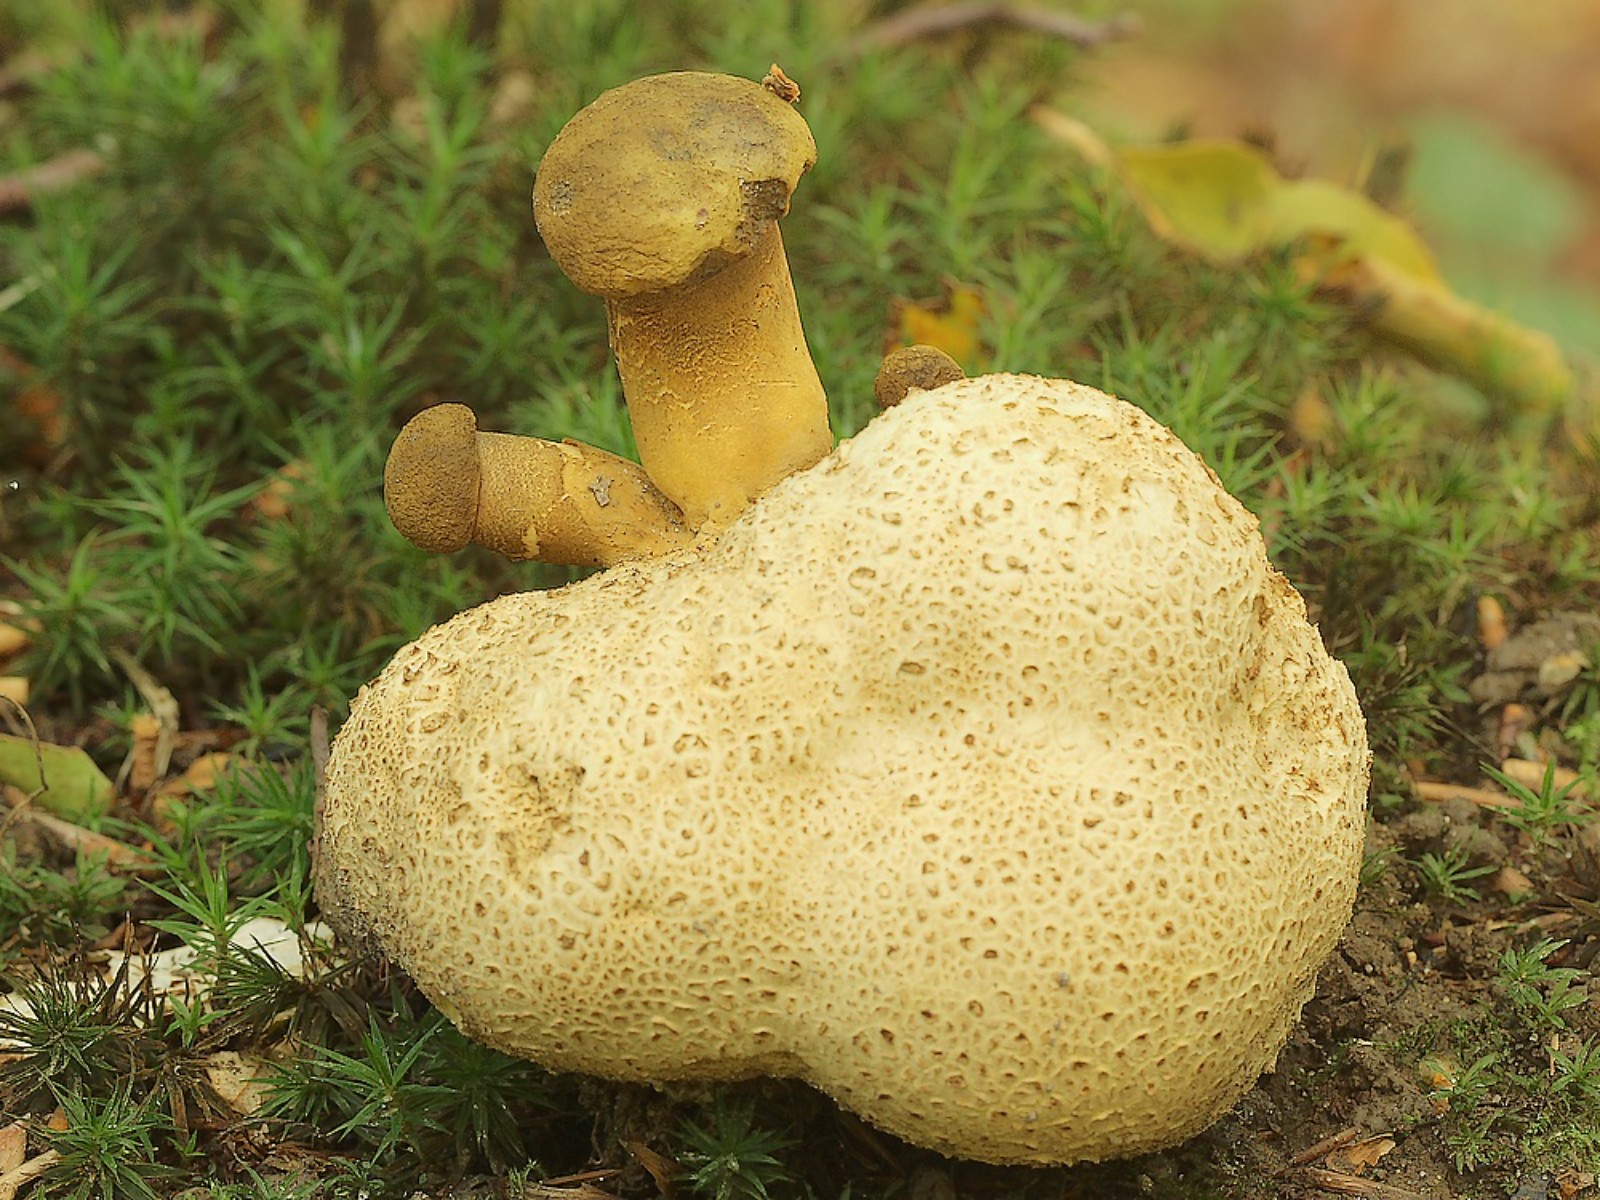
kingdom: Fungi
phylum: Basidiomycota
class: Agaricomycetes
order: Boletales
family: Boletaceae
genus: Pseudoboletus
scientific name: Pseudoboletus parasiticus
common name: snyltende rørhat
